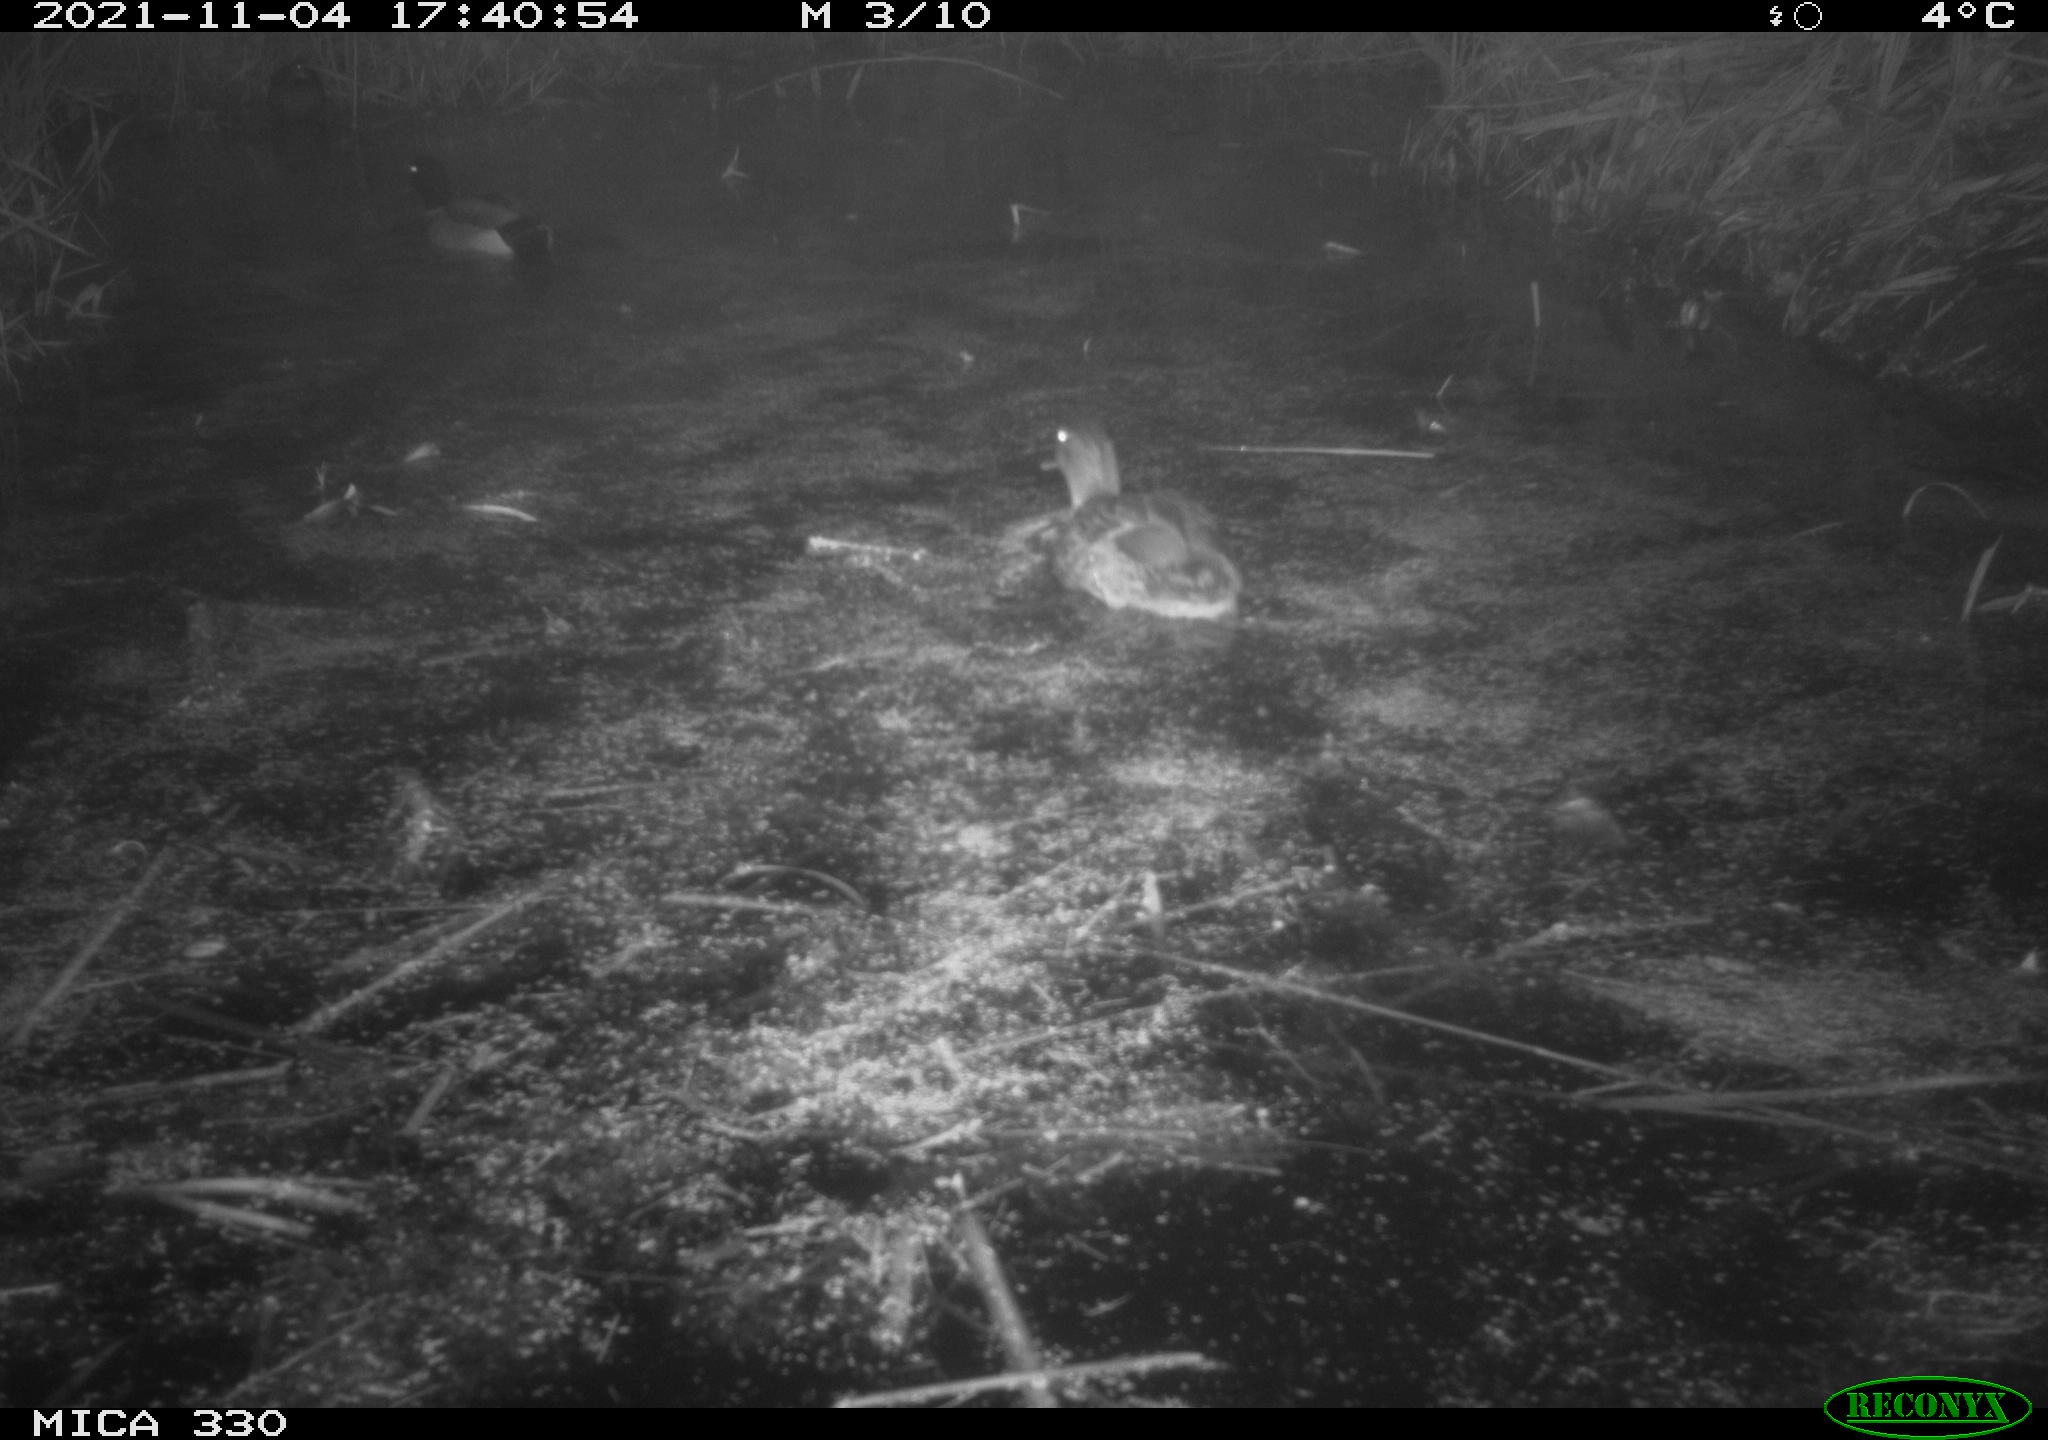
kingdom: Animalia
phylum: Chordata
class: Aves
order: Anseriformes
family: Anatidae
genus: Anas
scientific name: Anas platyrhynchos
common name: Mallard
